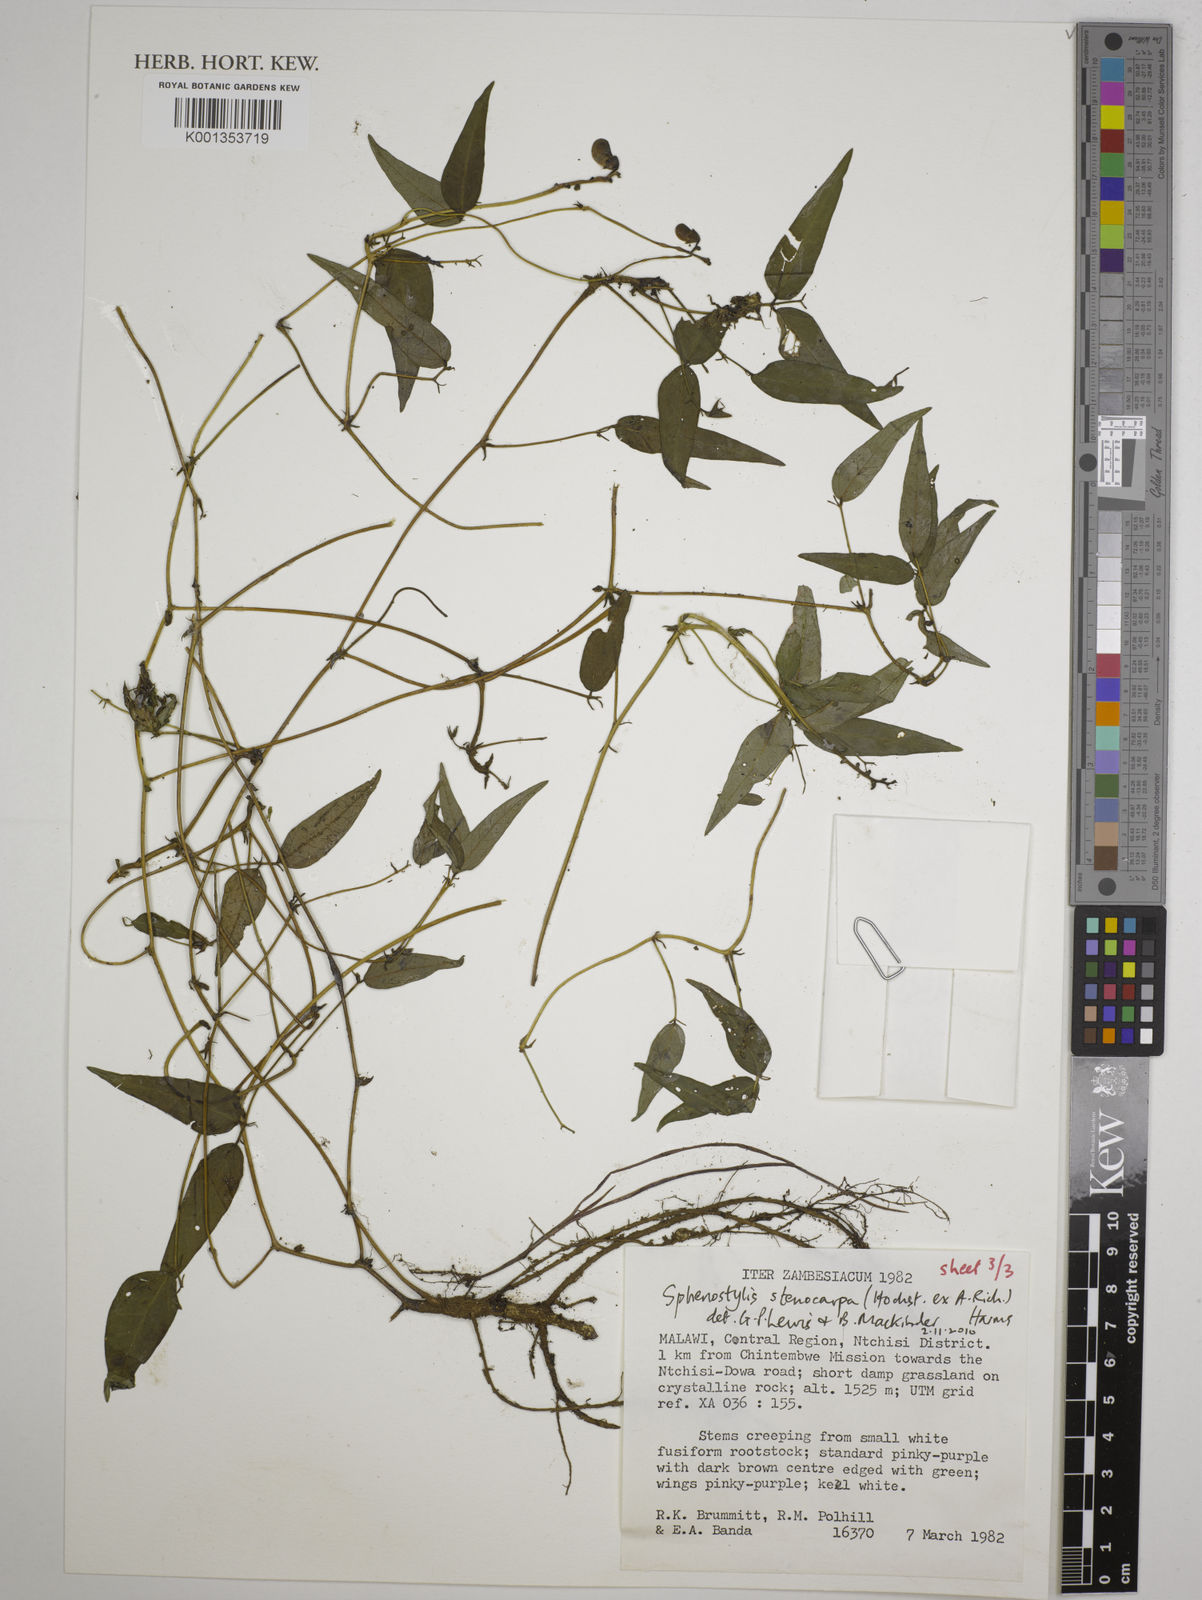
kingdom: Plantae
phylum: Tracheophyta
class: Magnoliopsida
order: Fabales
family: Fabaceae
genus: Sphenostylis
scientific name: Sphenostylis stenocarpa
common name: Yam-pea
